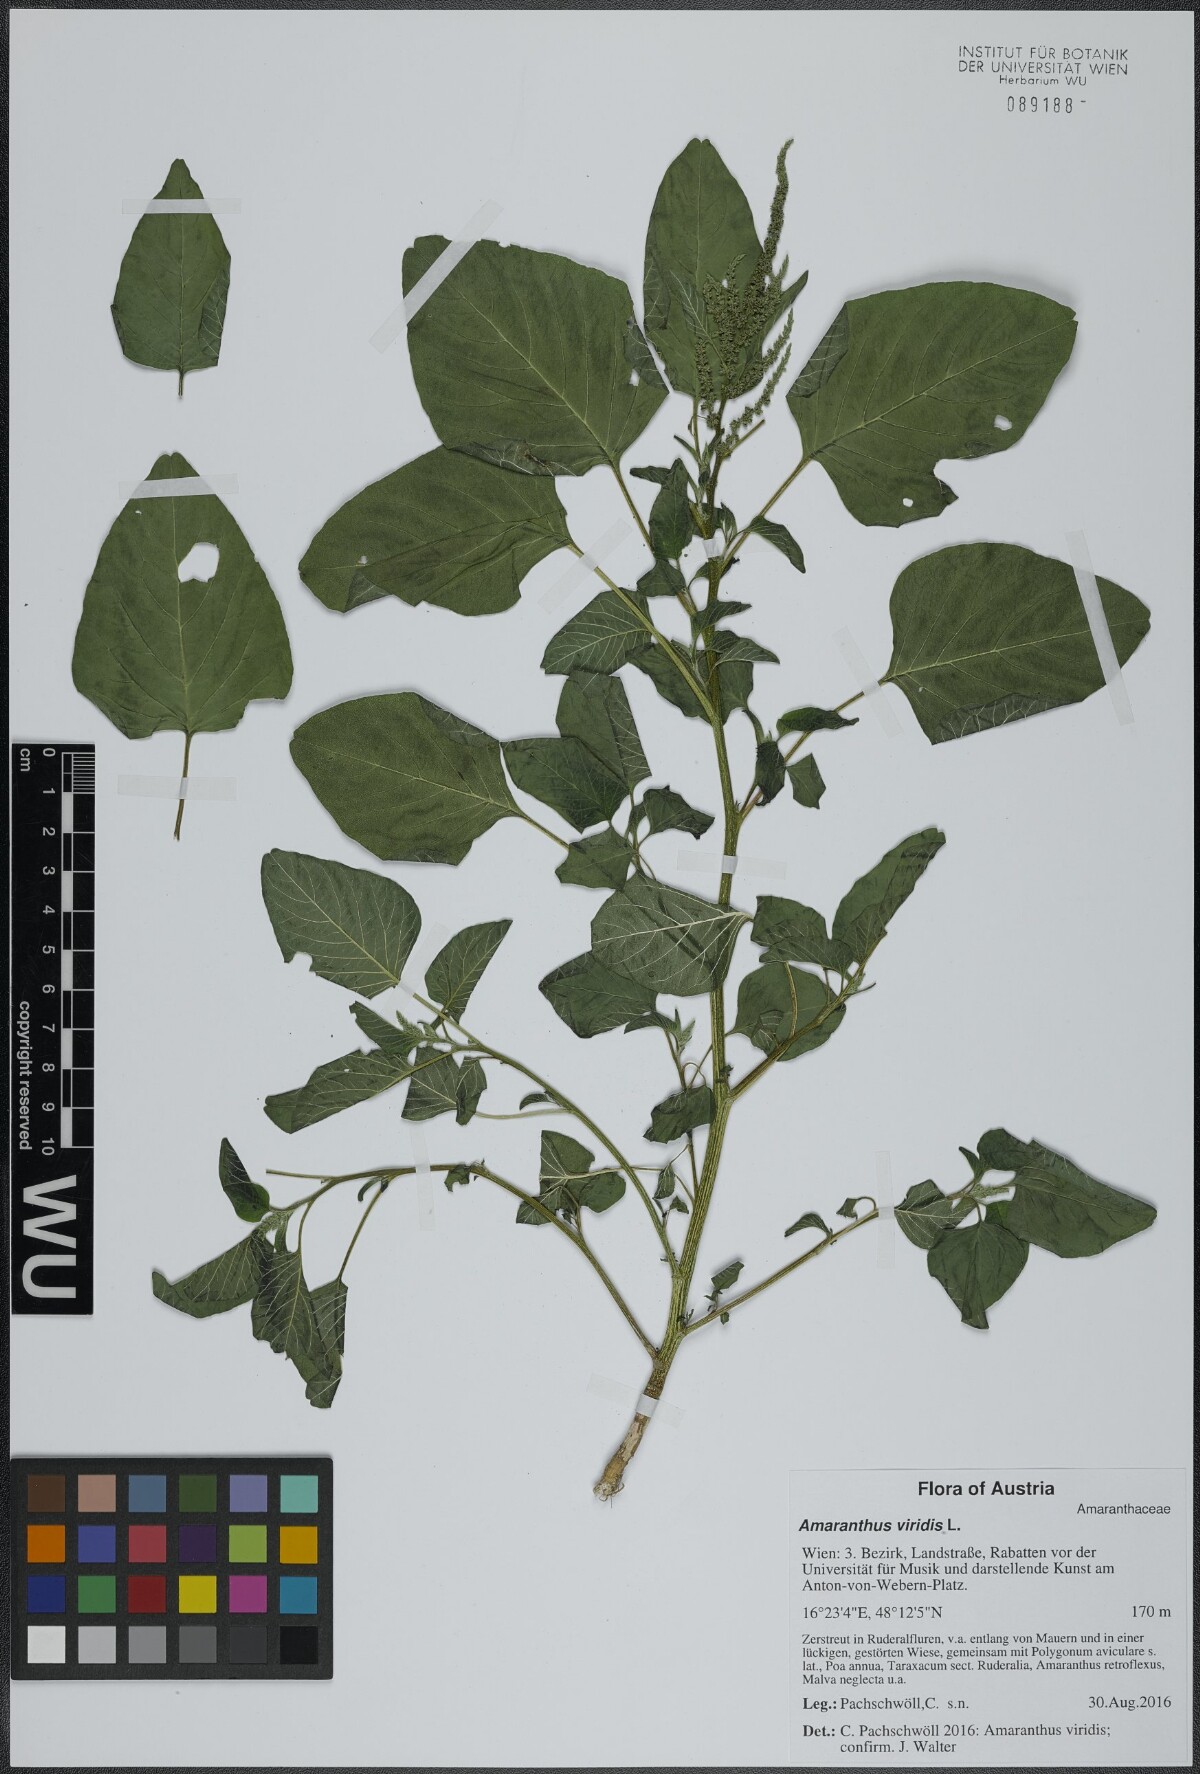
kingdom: Plantae
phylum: Tracheophyta
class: Magnoliopsida
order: Caryophyllales
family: Amaranthaceae
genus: Amaranthus
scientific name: Amaranthus viridis
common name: Slender amaranth
